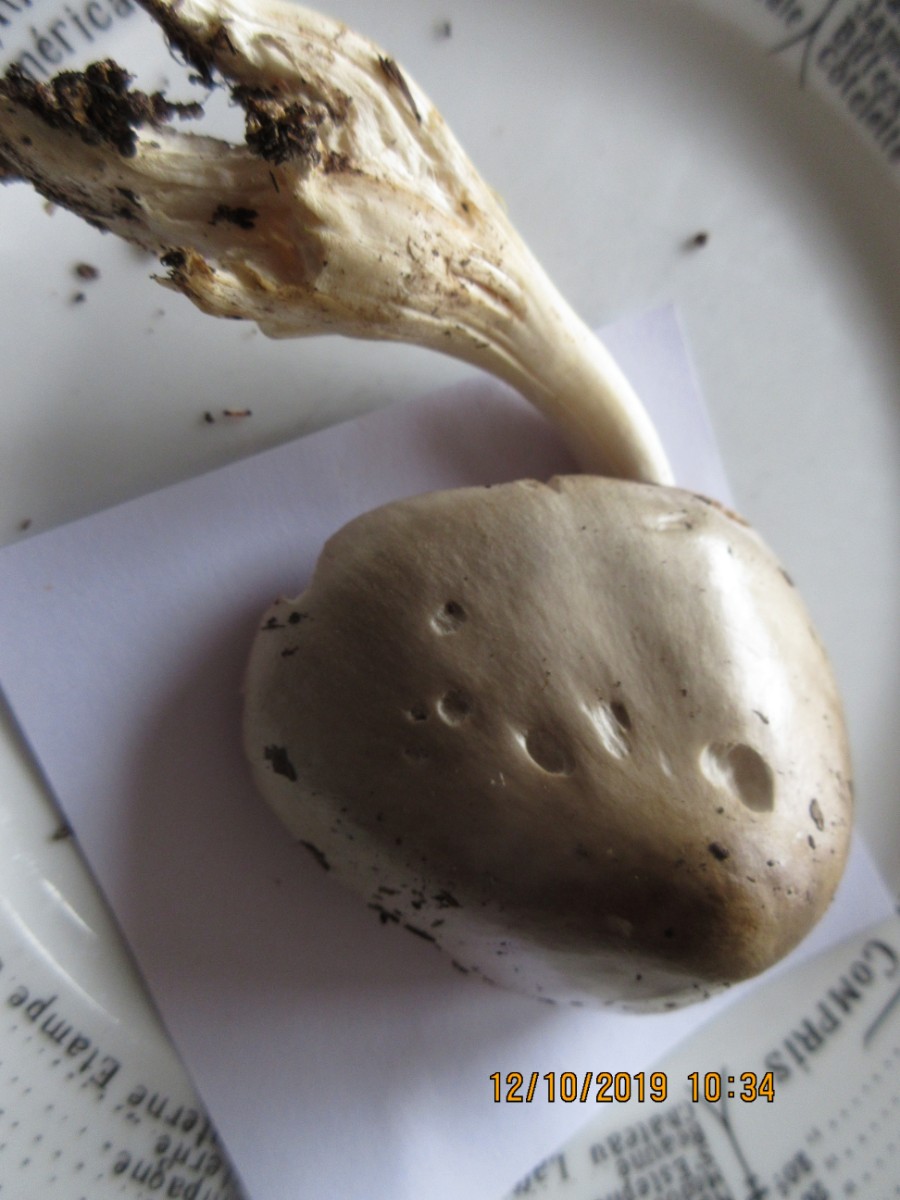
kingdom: Fungi
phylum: Basidiomycota
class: Agaricomycetes
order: Agaricales
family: Pluteaceae
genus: Volvopluteus
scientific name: Volvopluteus gloiocephalus
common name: høj posesvamp
